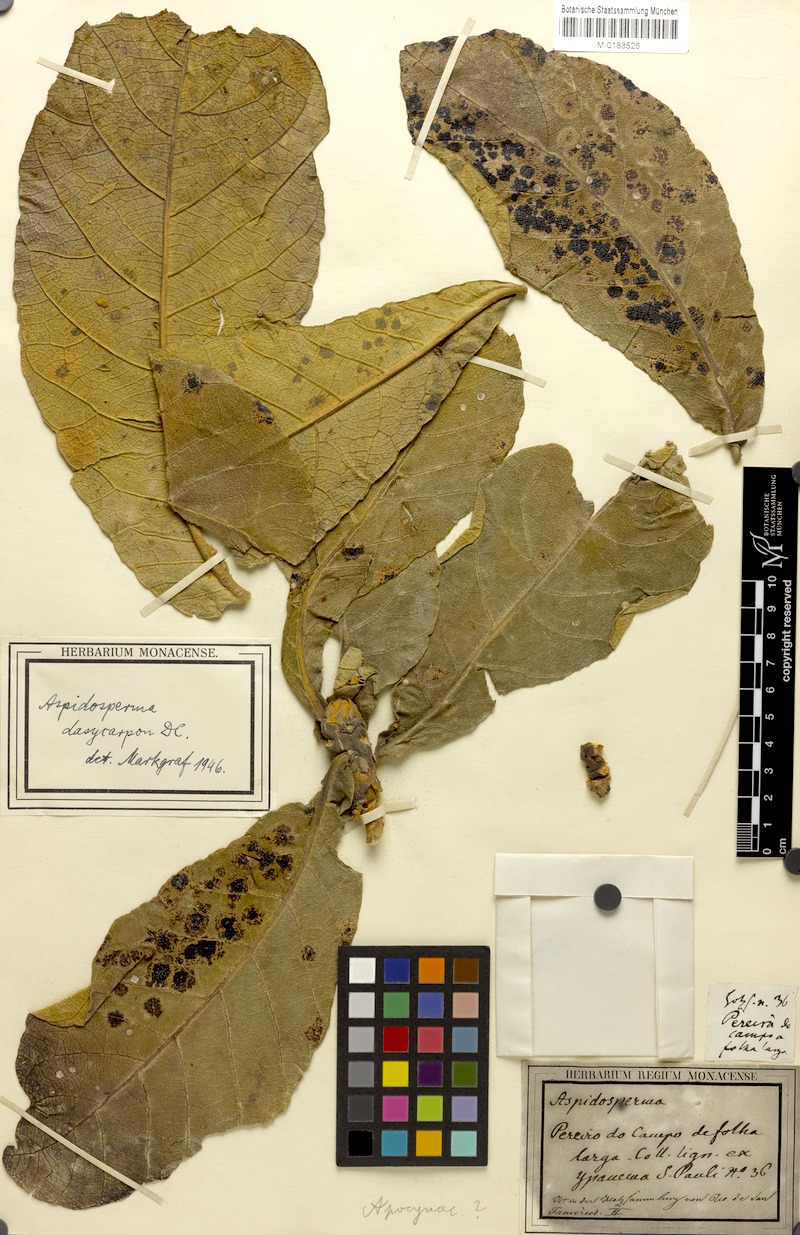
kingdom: Plantae
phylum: Tracheophyta
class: Magnoliopsida
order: Gentianales
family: Apocynaceae
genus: Aspidosperma
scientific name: Aspidosperma tomentosum
